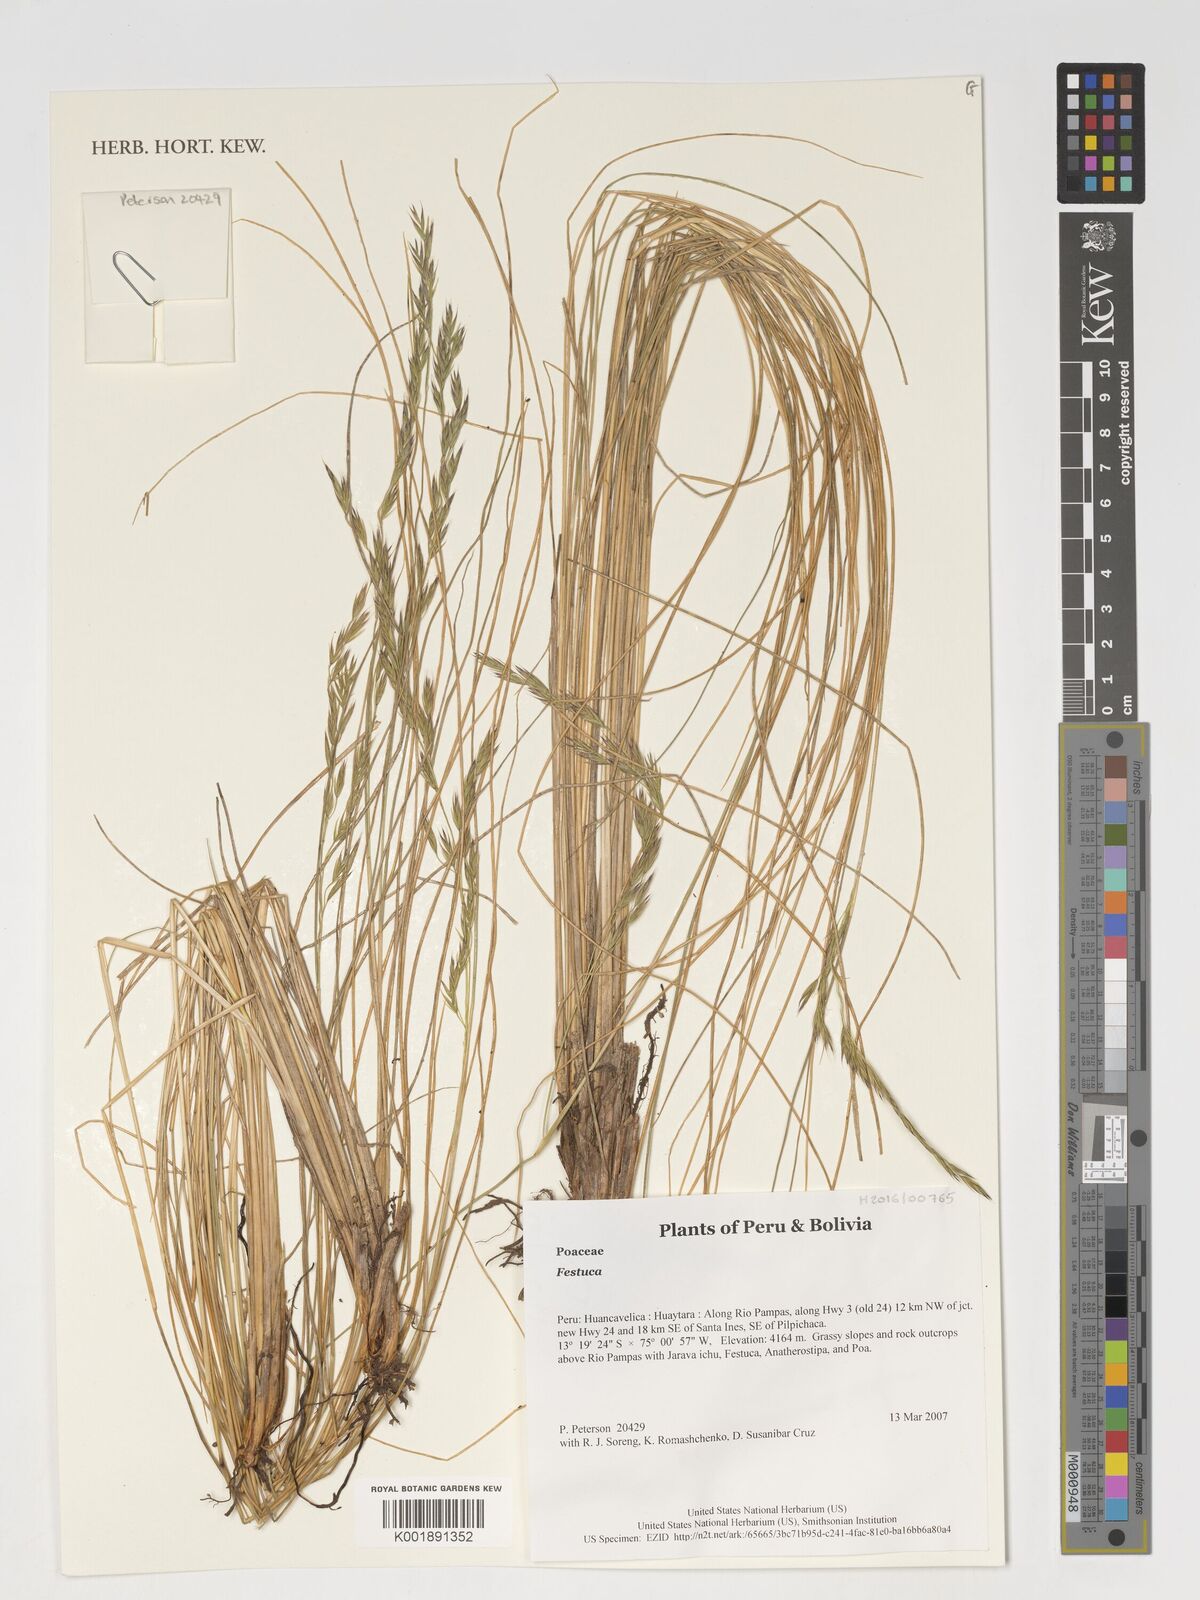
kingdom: Plantae
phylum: Tracheophyta
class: Liliopsida
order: Poales
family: Poaceae
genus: Festuca
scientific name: Festuca
